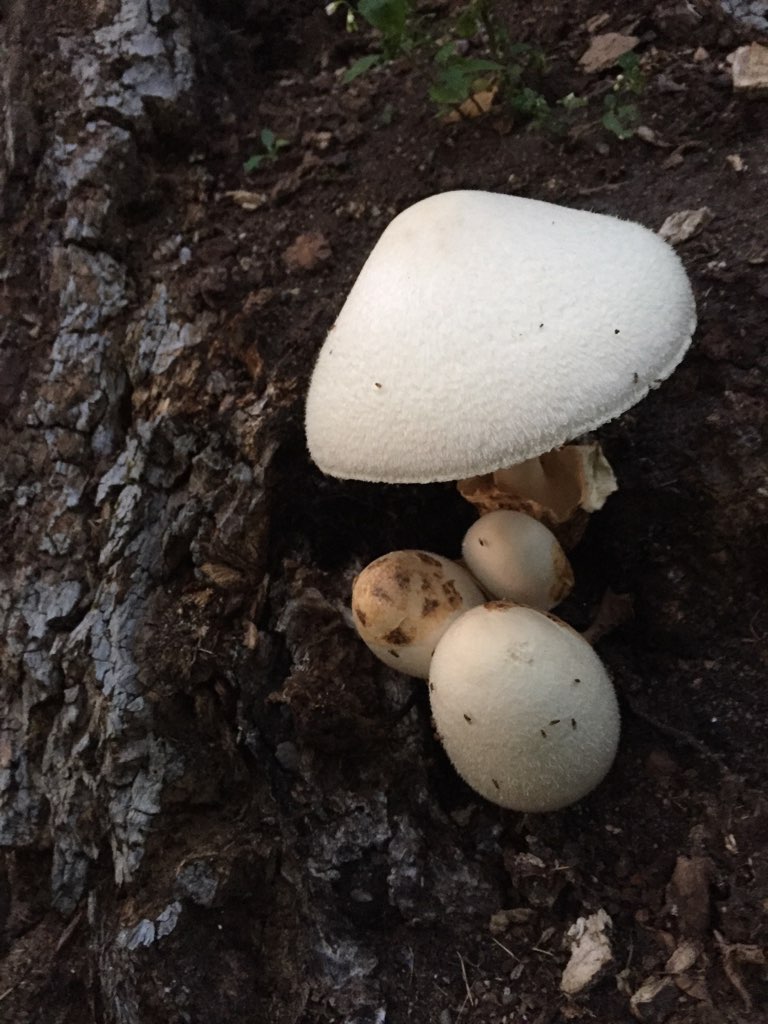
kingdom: Fungi
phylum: Basidiomycota
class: Agaricomycetes
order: Agaricales
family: Pluteaceae
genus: Volvariella
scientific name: Volvariella bombycina
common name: silkehåret posesvamp
